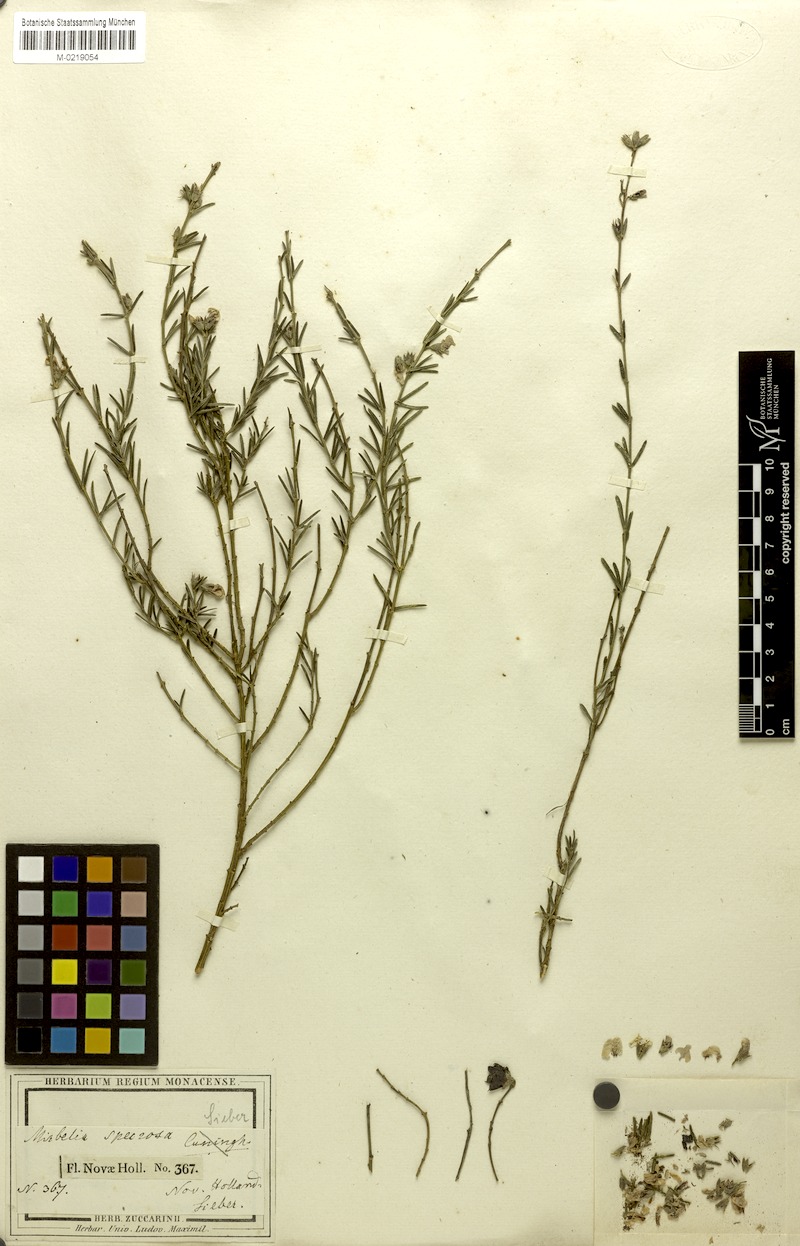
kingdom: Plantae
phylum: Tracheophyta
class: Magnoliopsida
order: Fabales
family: Fabaceae
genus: Mirbelia
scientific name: Mirbelia speciosa
